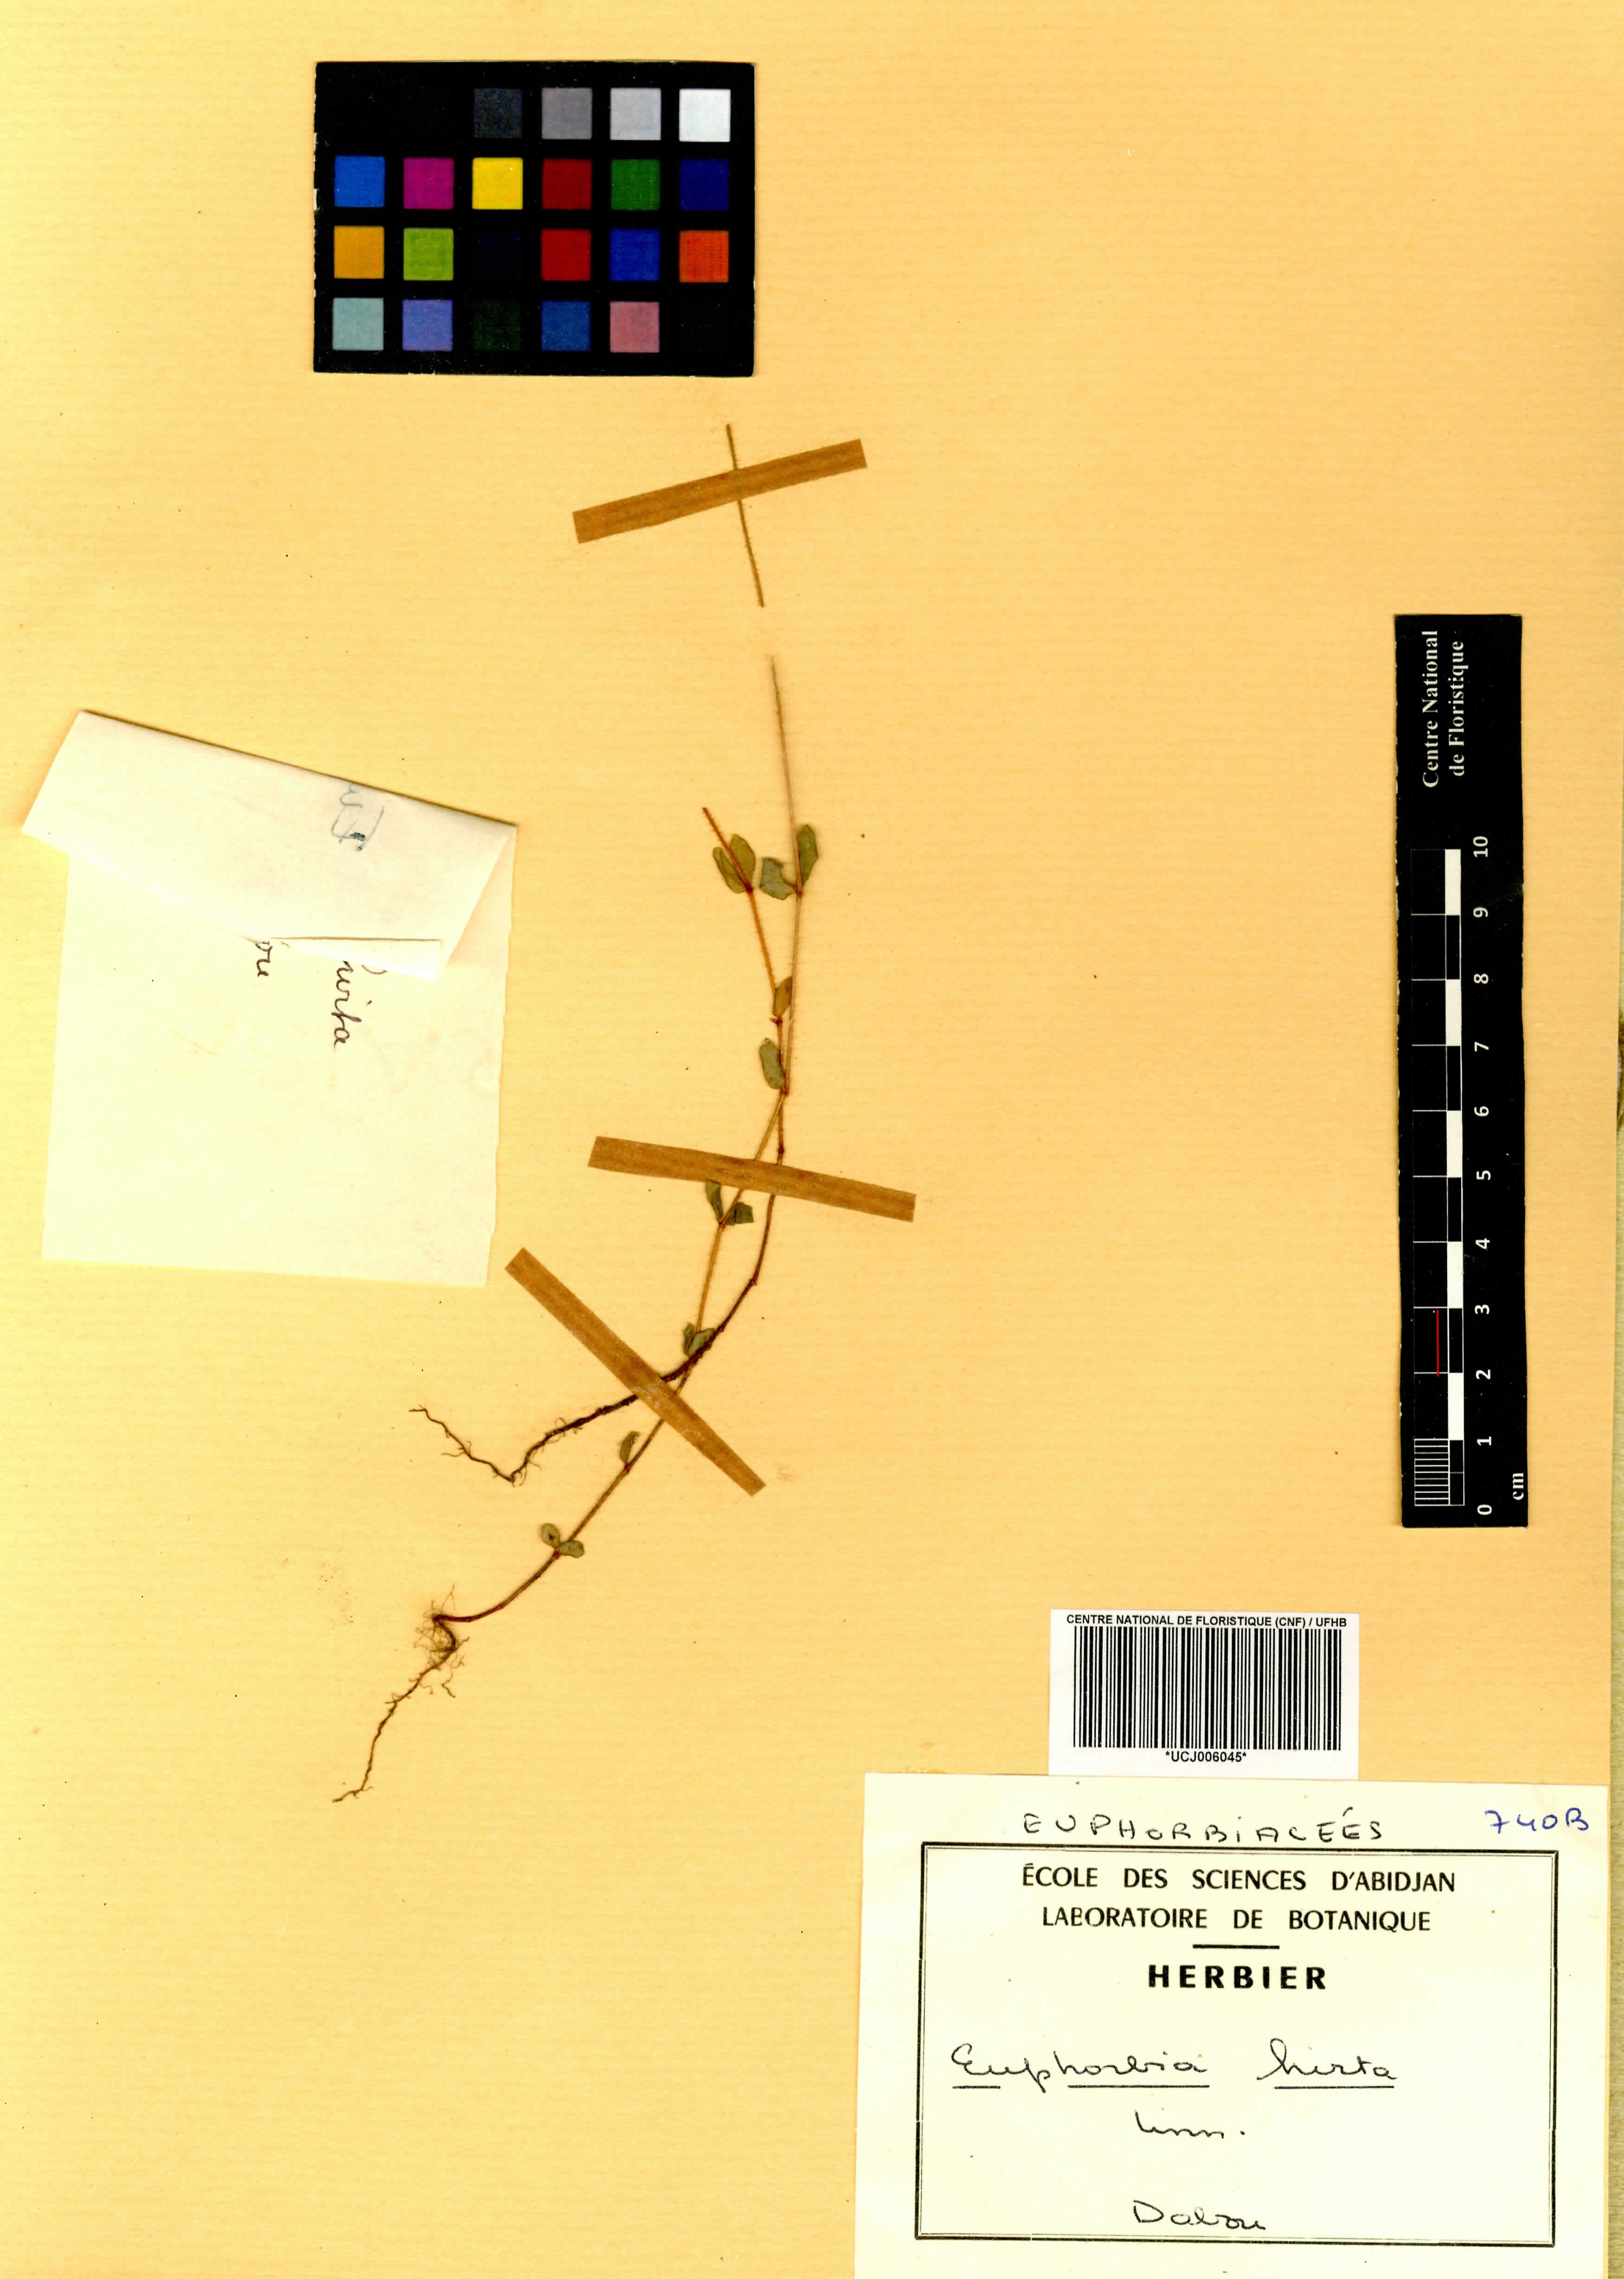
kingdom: Plantae
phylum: Tracheophyta
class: Magnoliopsida
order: Malpighiales
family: Euphorbiaceae
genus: Euphorbia
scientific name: Euphorbia hirta
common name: Pillpod sandmat
